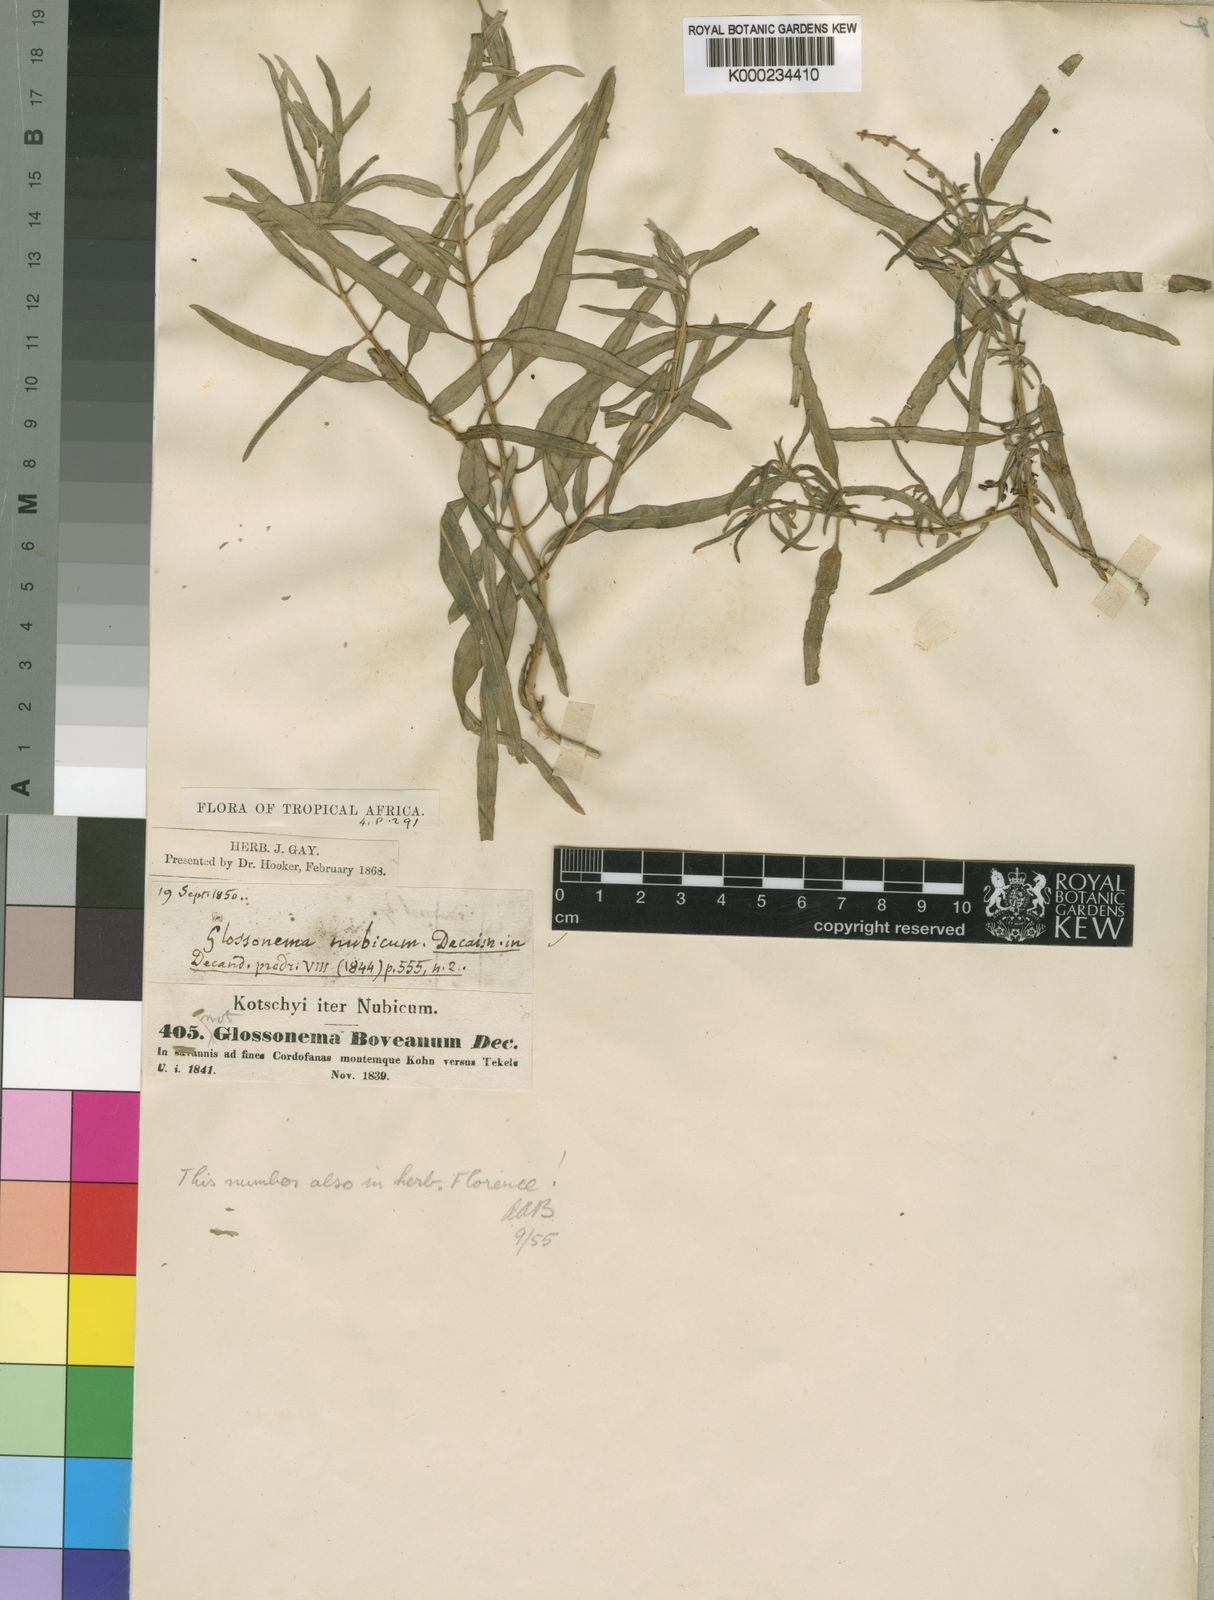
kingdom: Plantae
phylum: Tracheophyta
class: Magnoliopsida
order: Gentianales
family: Apocynaceae
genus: Cynanchum
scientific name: Cynanchum boveanum
